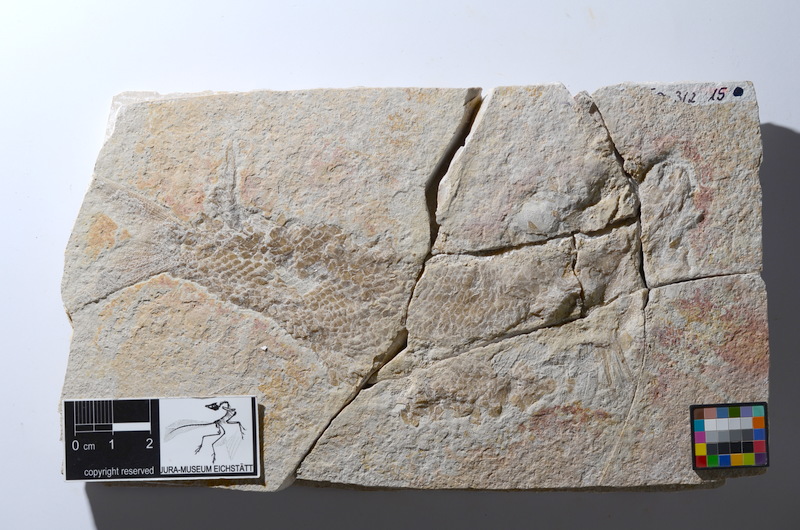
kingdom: Animalia
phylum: Chordata
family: Ankylophoridae
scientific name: Ankylophoridae
